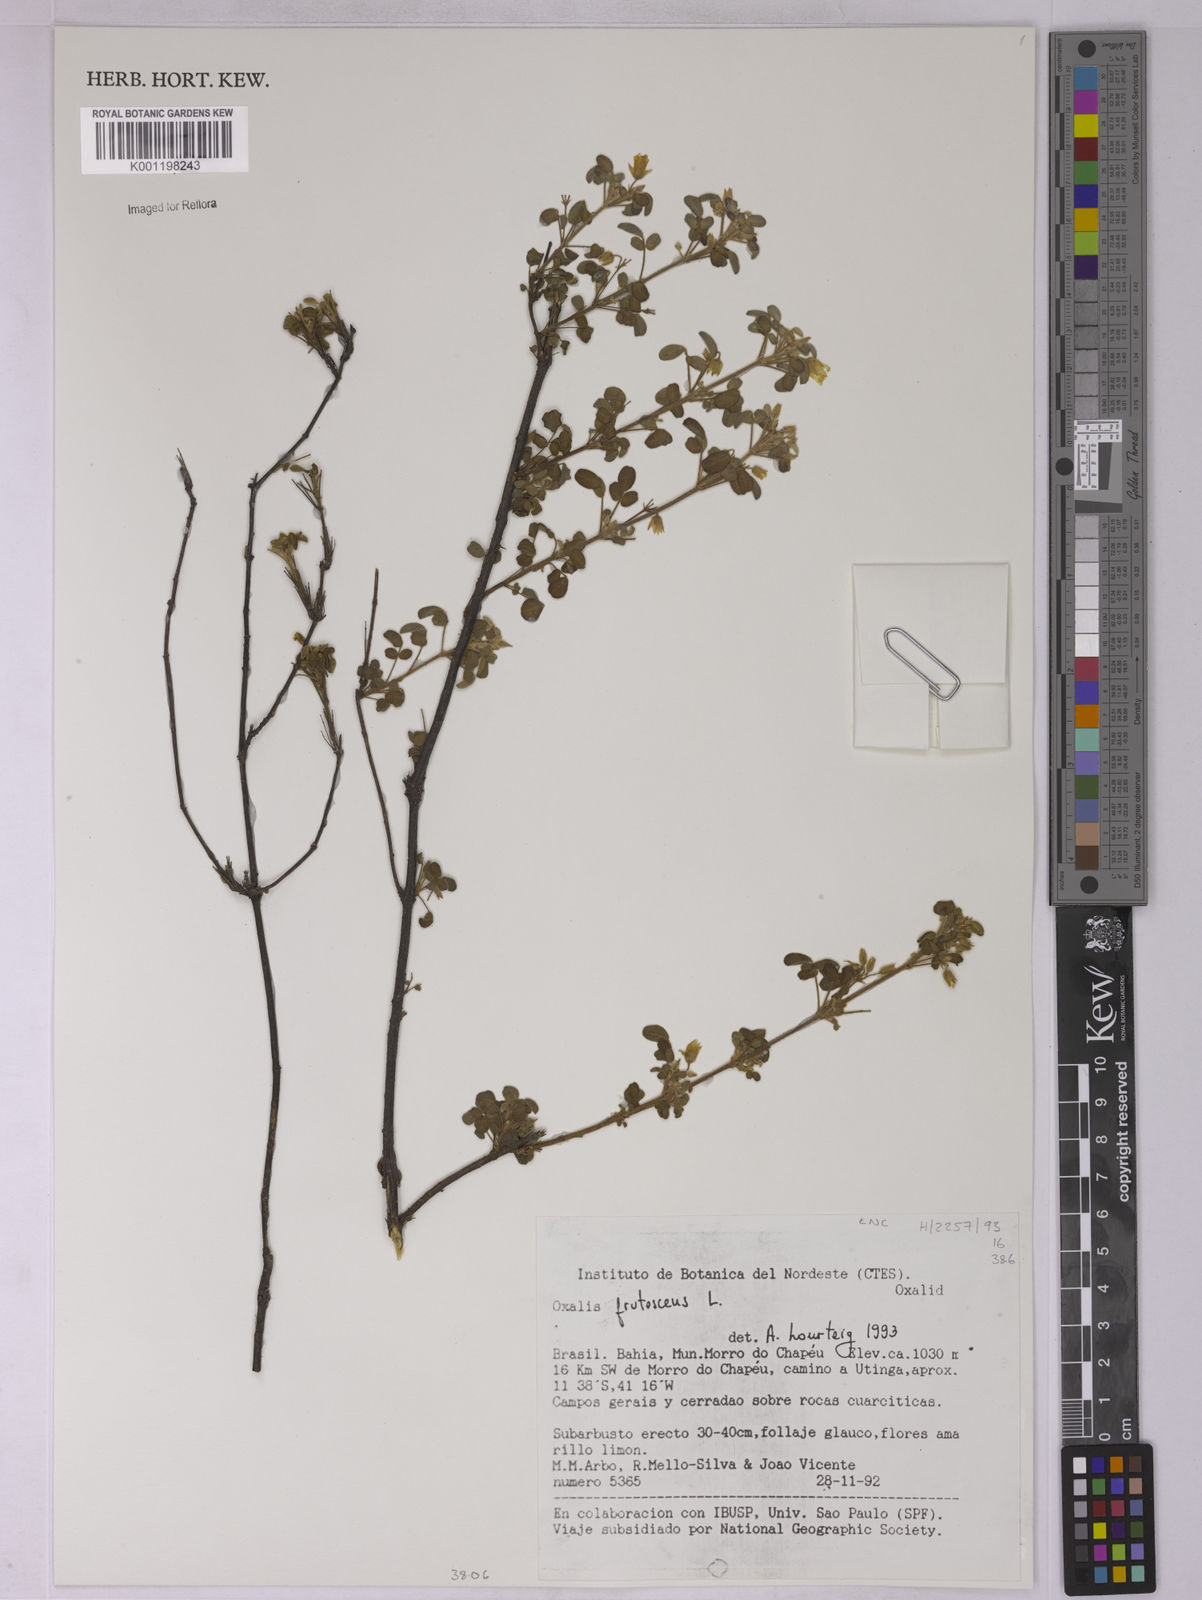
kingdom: Plantae
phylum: Tracheophyta
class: Magnoliopsida
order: Oxalidales
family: Oxalidaceae
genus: Oxalis
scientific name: Oxalis frutescens
